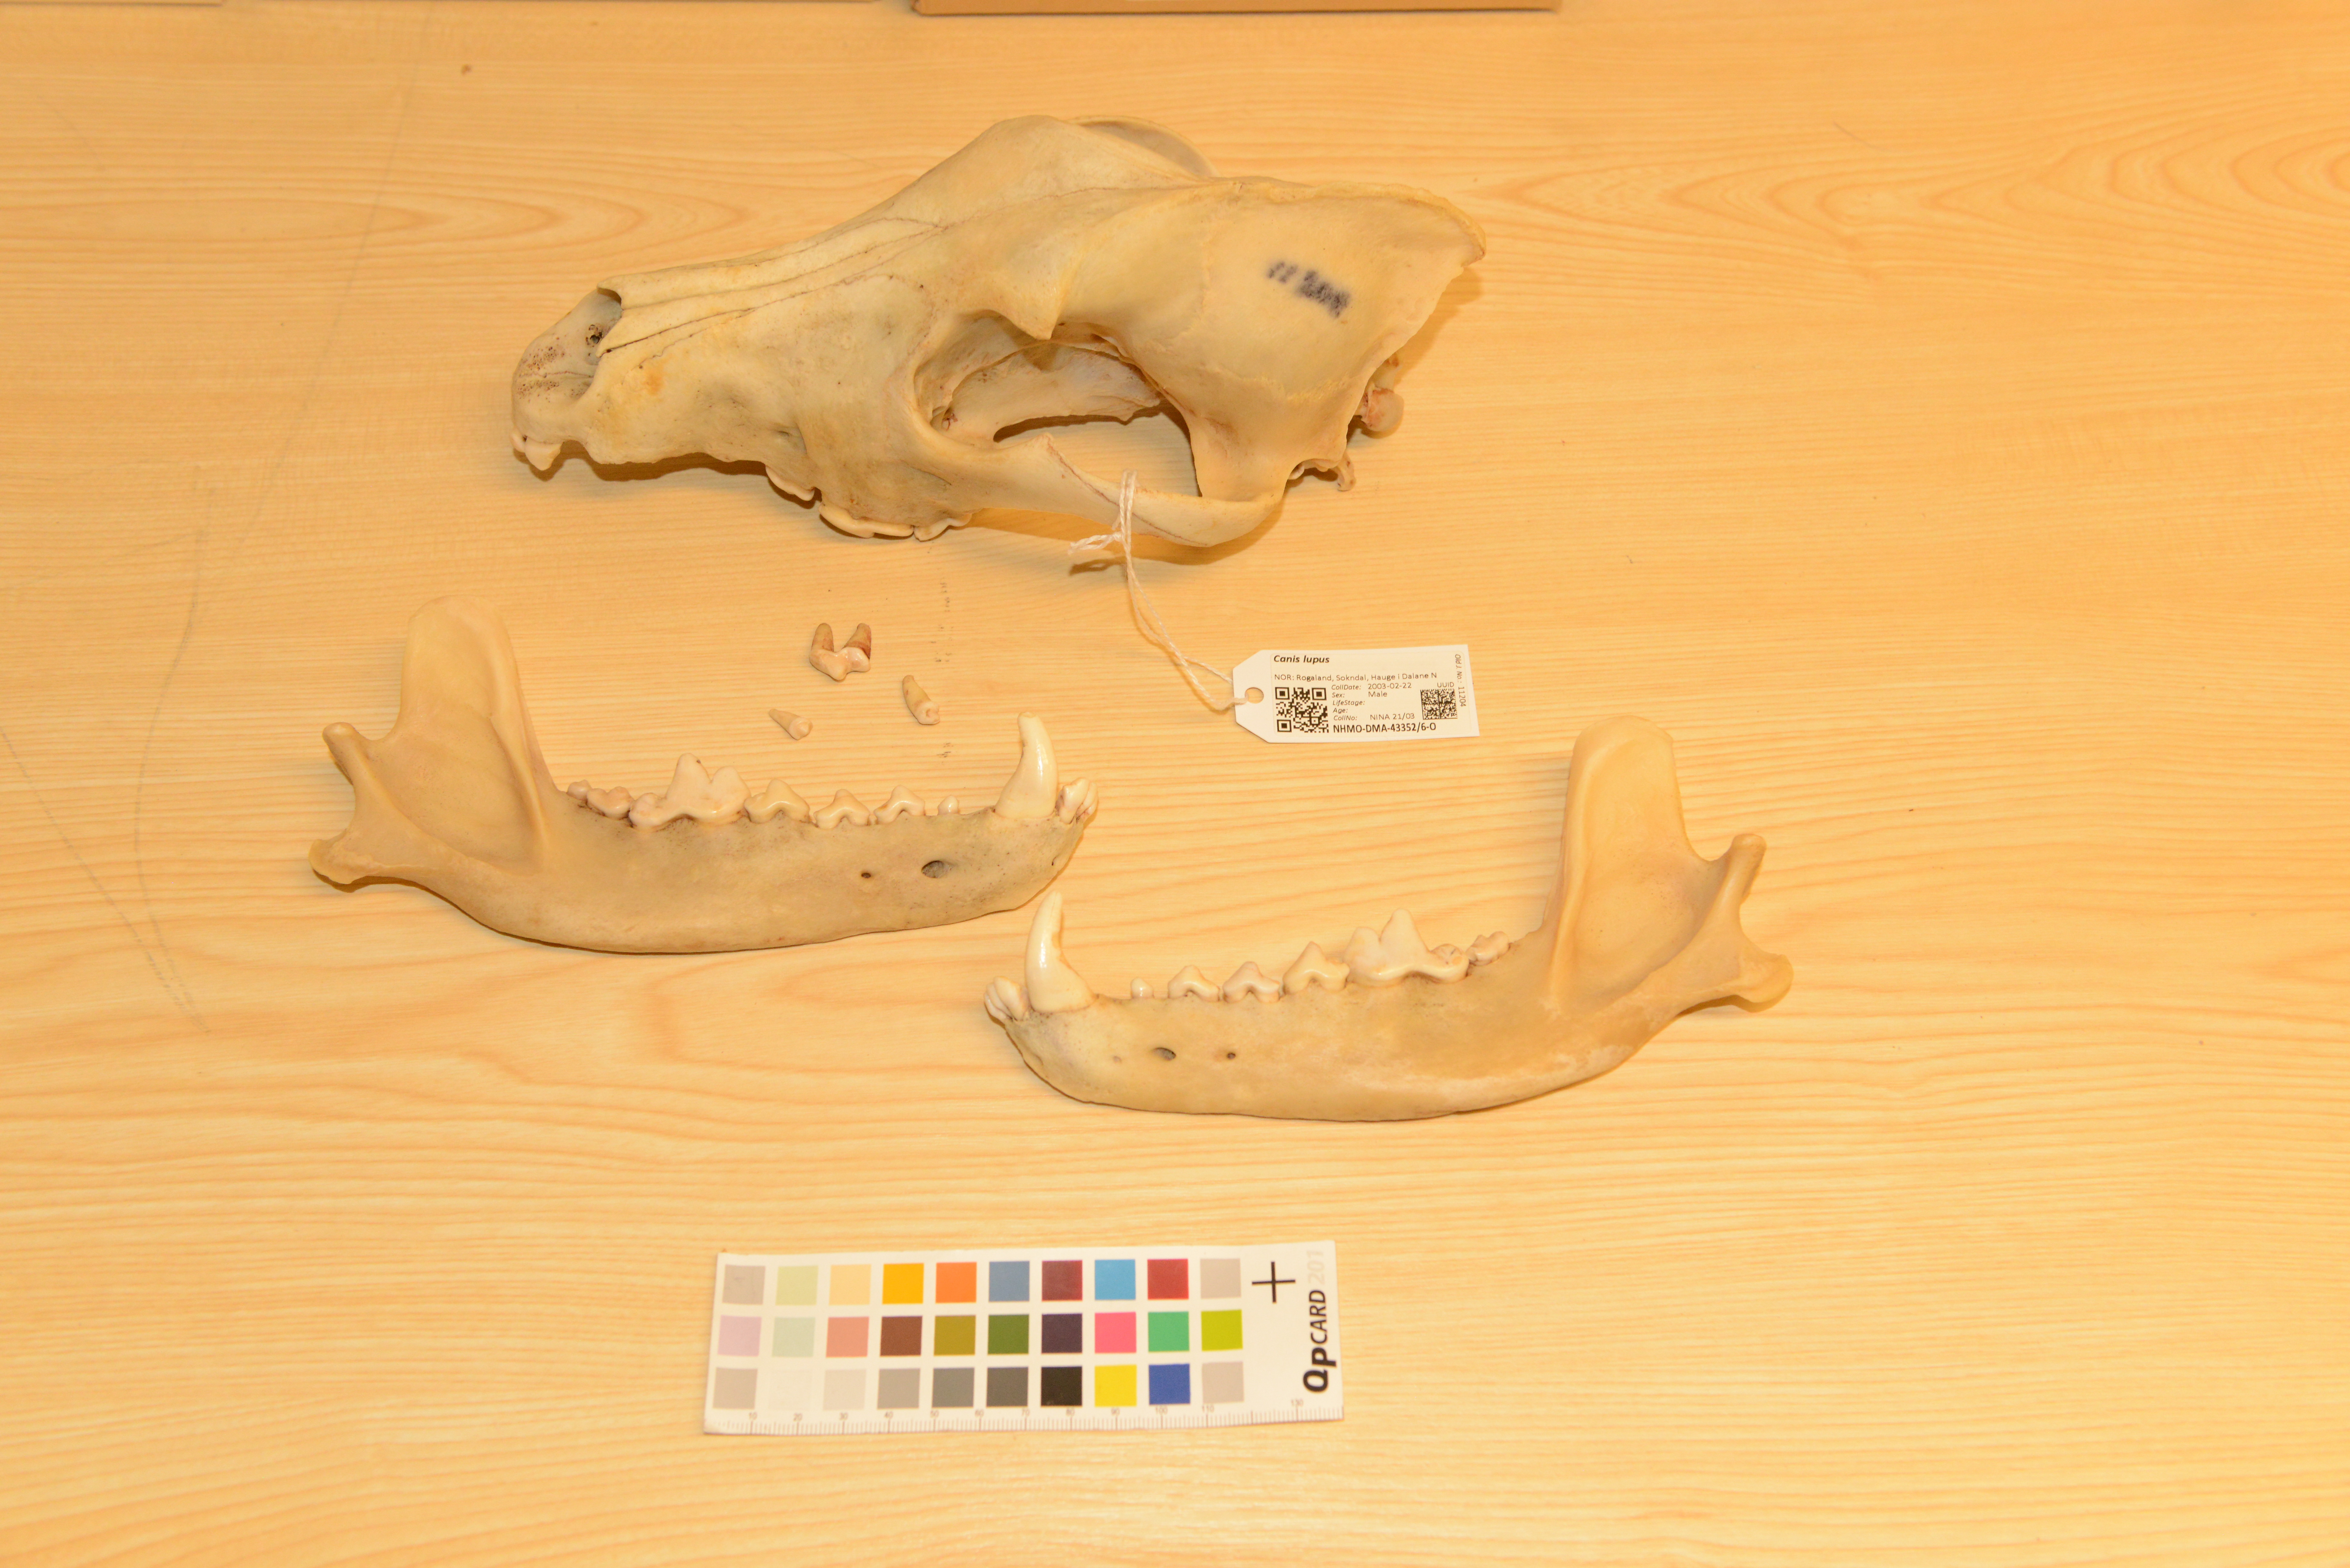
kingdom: Animalia
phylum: Chordata
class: Mammalia
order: Carnivora
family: Canidae
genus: Canis
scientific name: Canis lupus
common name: Gray wolf
